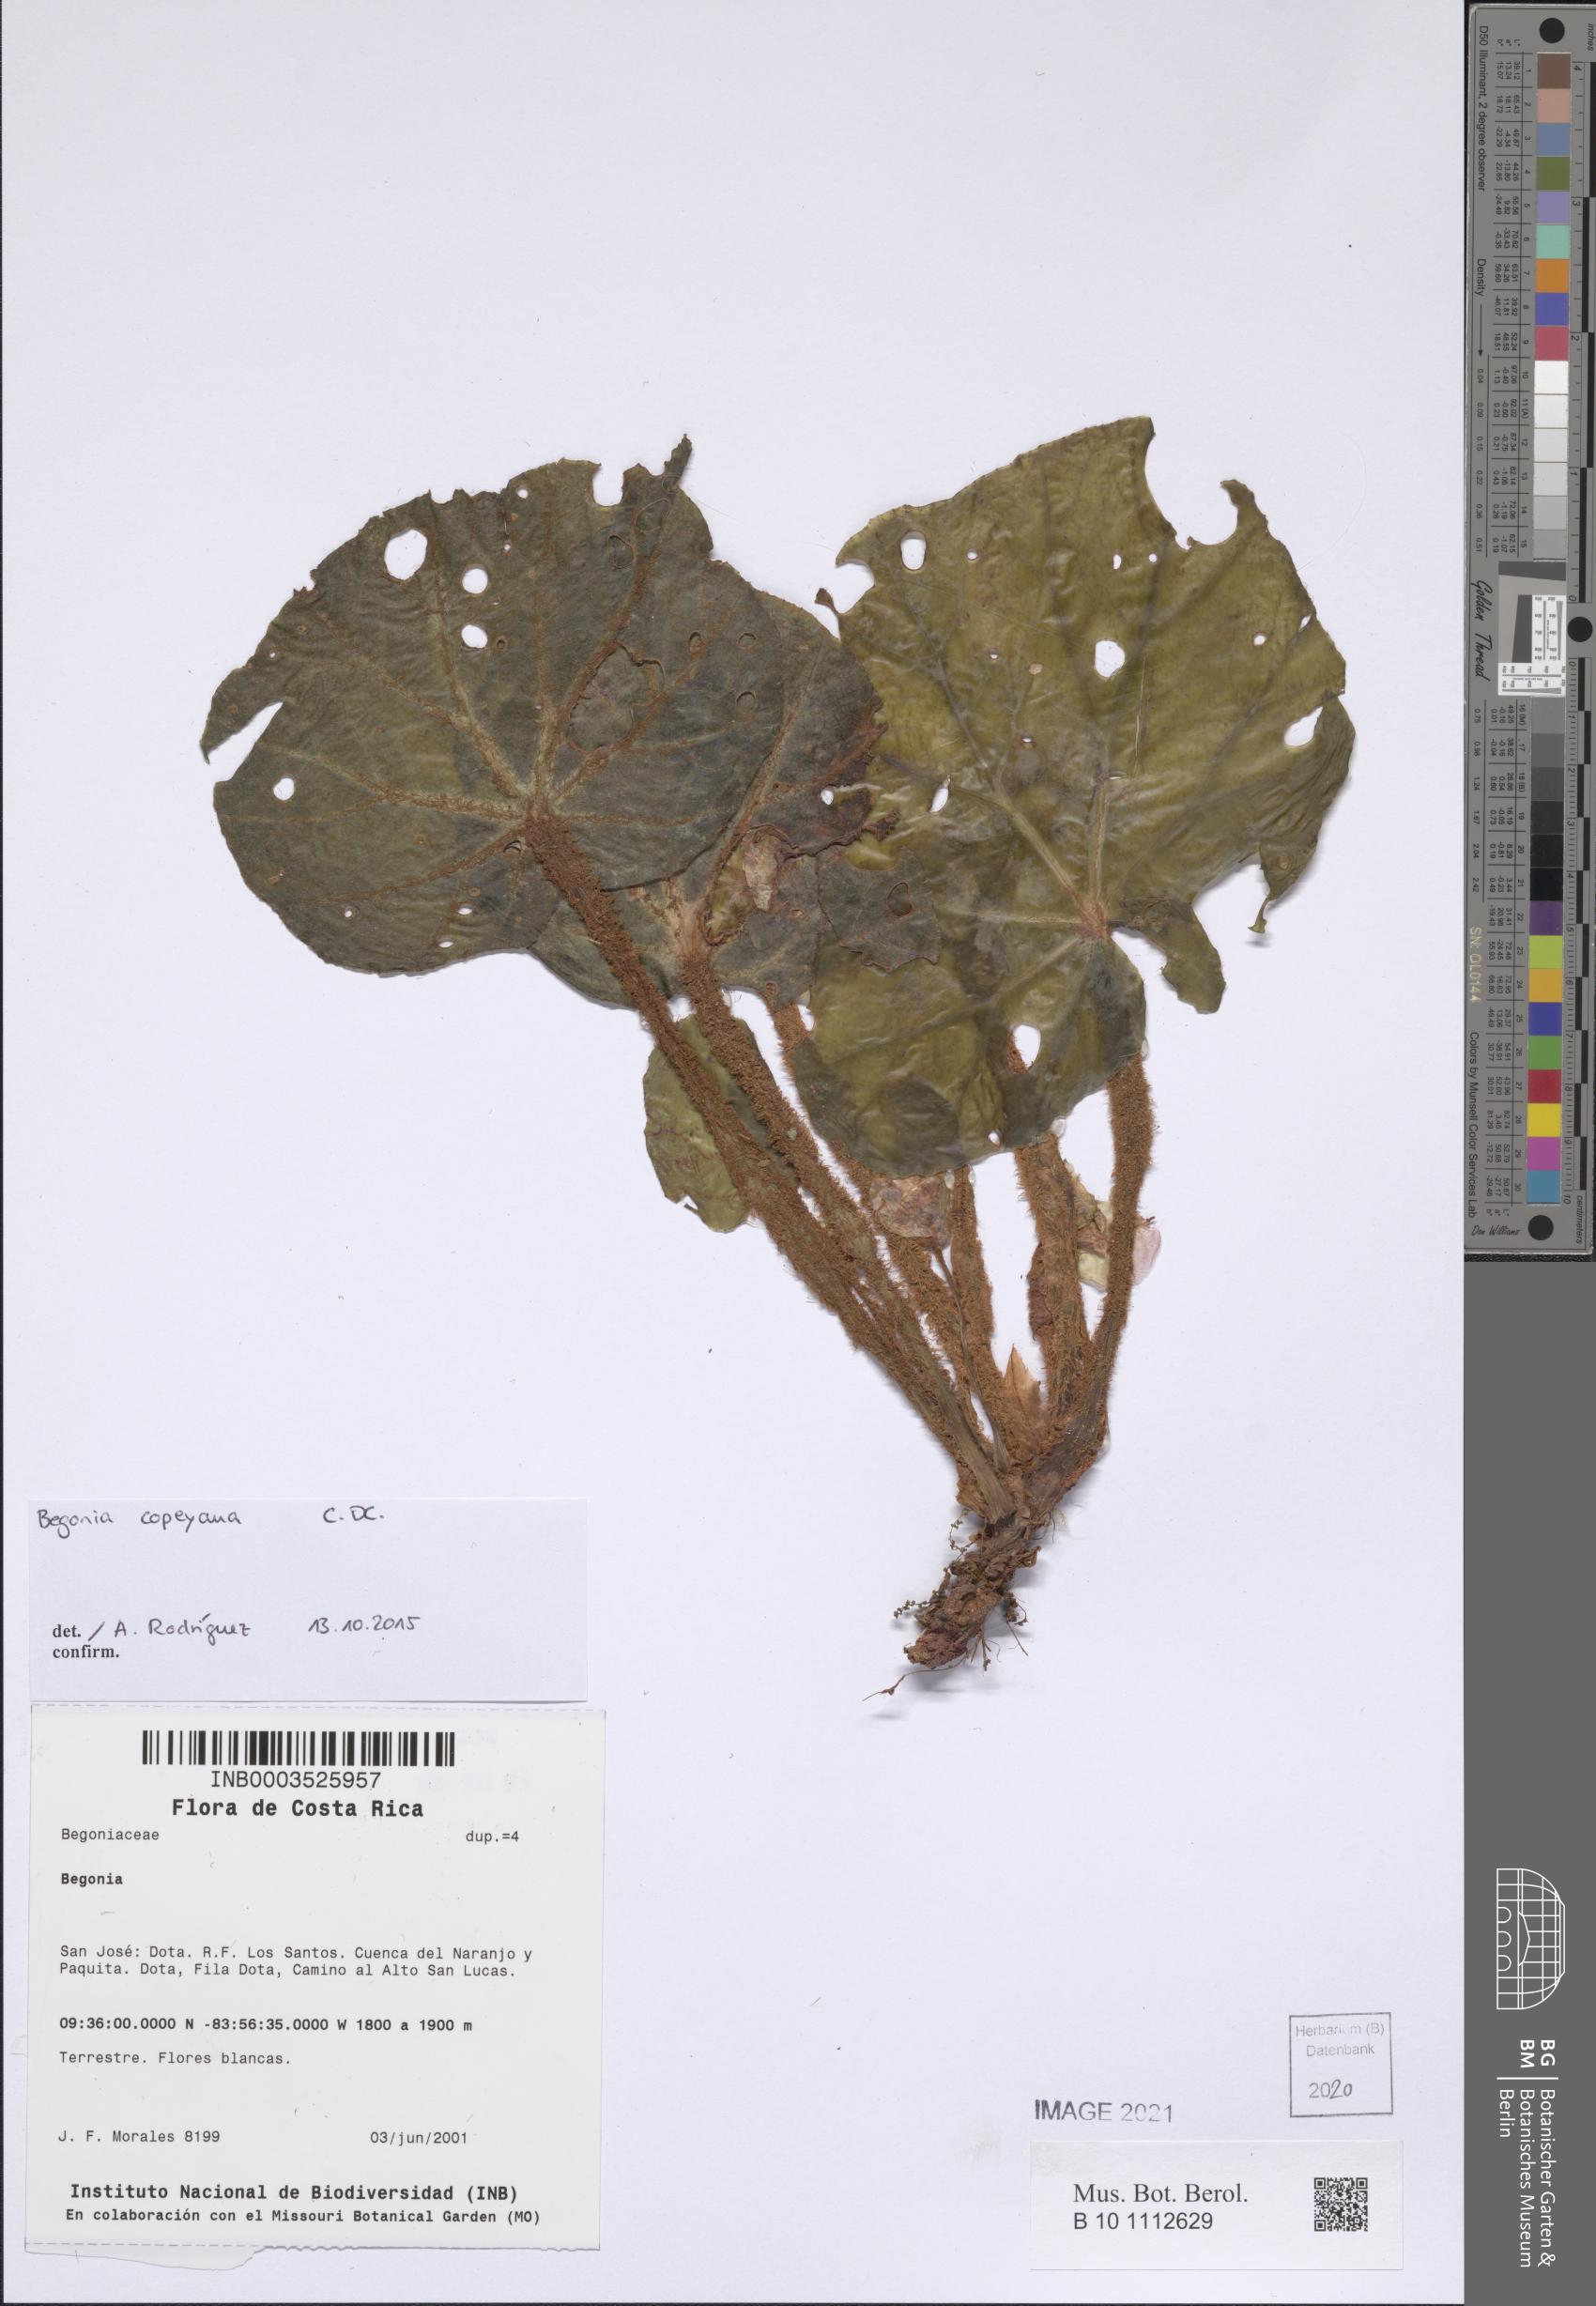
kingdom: Plantae
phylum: Tracheophyta
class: Magnoliopsida
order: Cucurbitales
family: Begoniaceae
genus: Begonia
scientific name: Begonia vestita
